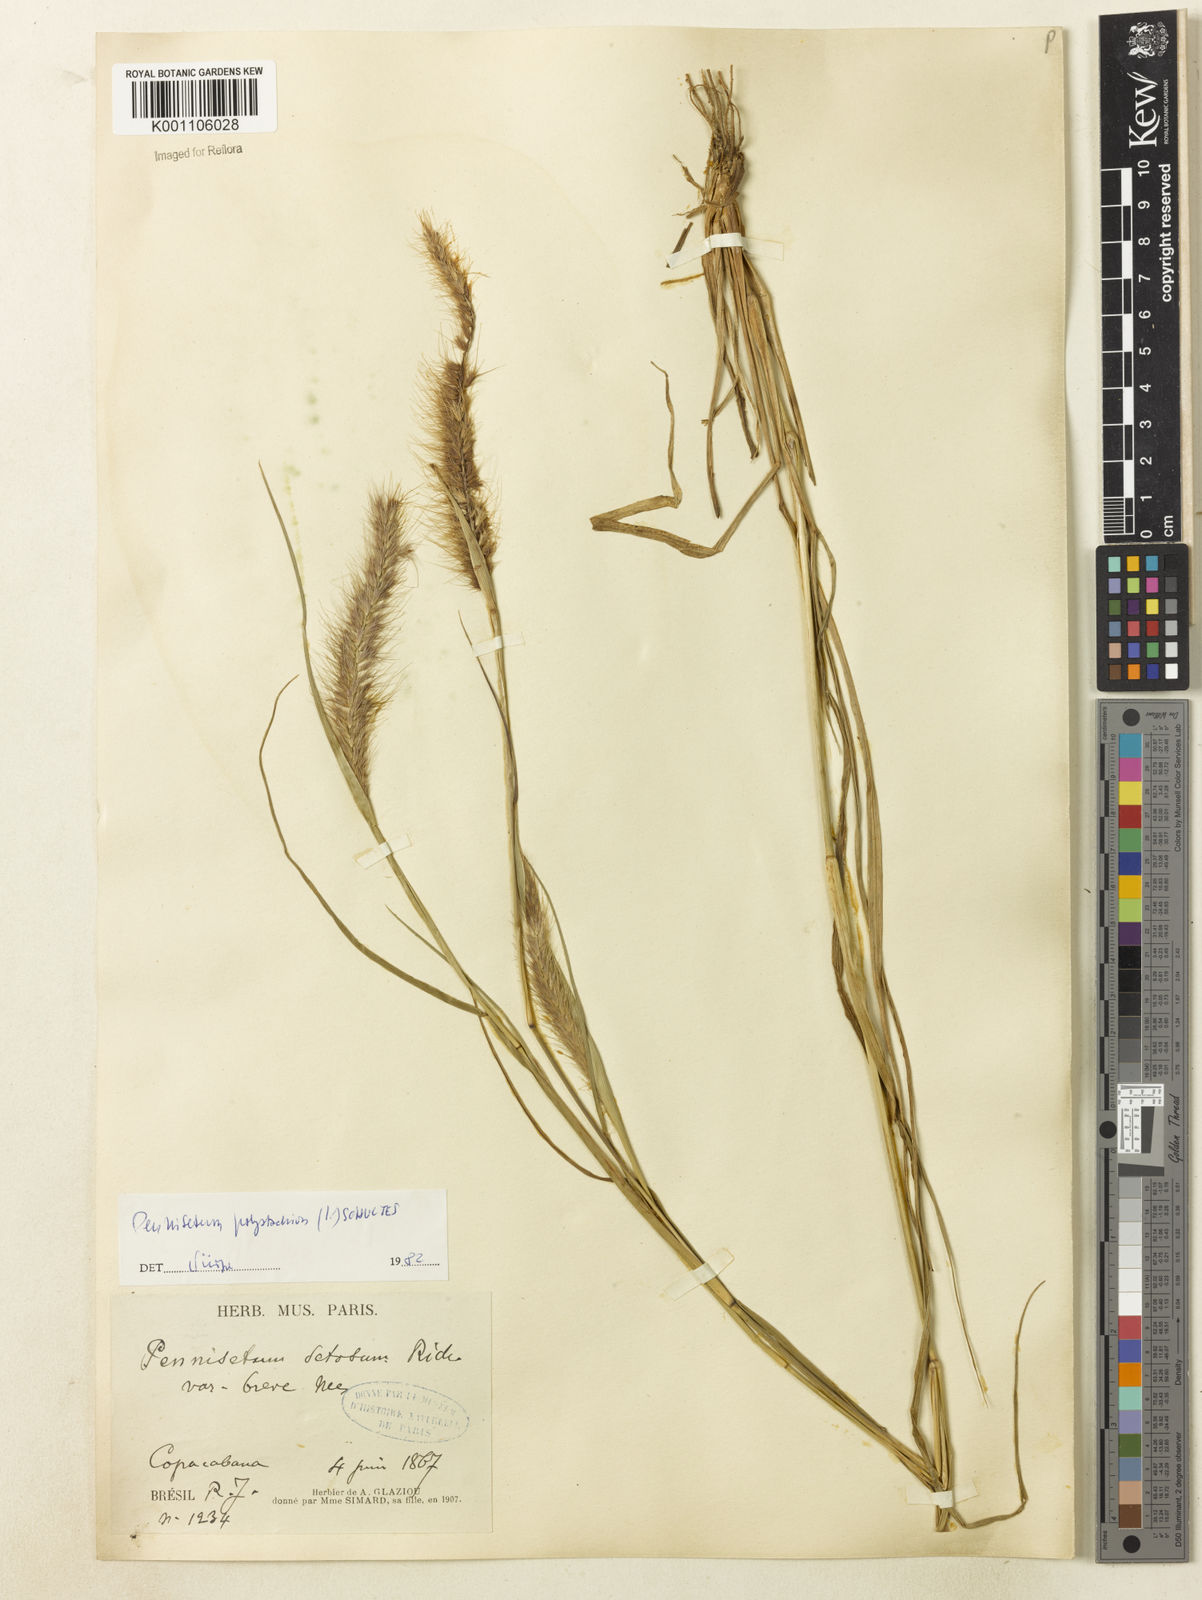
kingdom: Plantae
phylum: Tracheophyta
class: Liliopsida
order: Poales
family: Poaceae
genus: Setaria
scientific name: Setaria parviflora
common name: Knotroot bristle-grass
